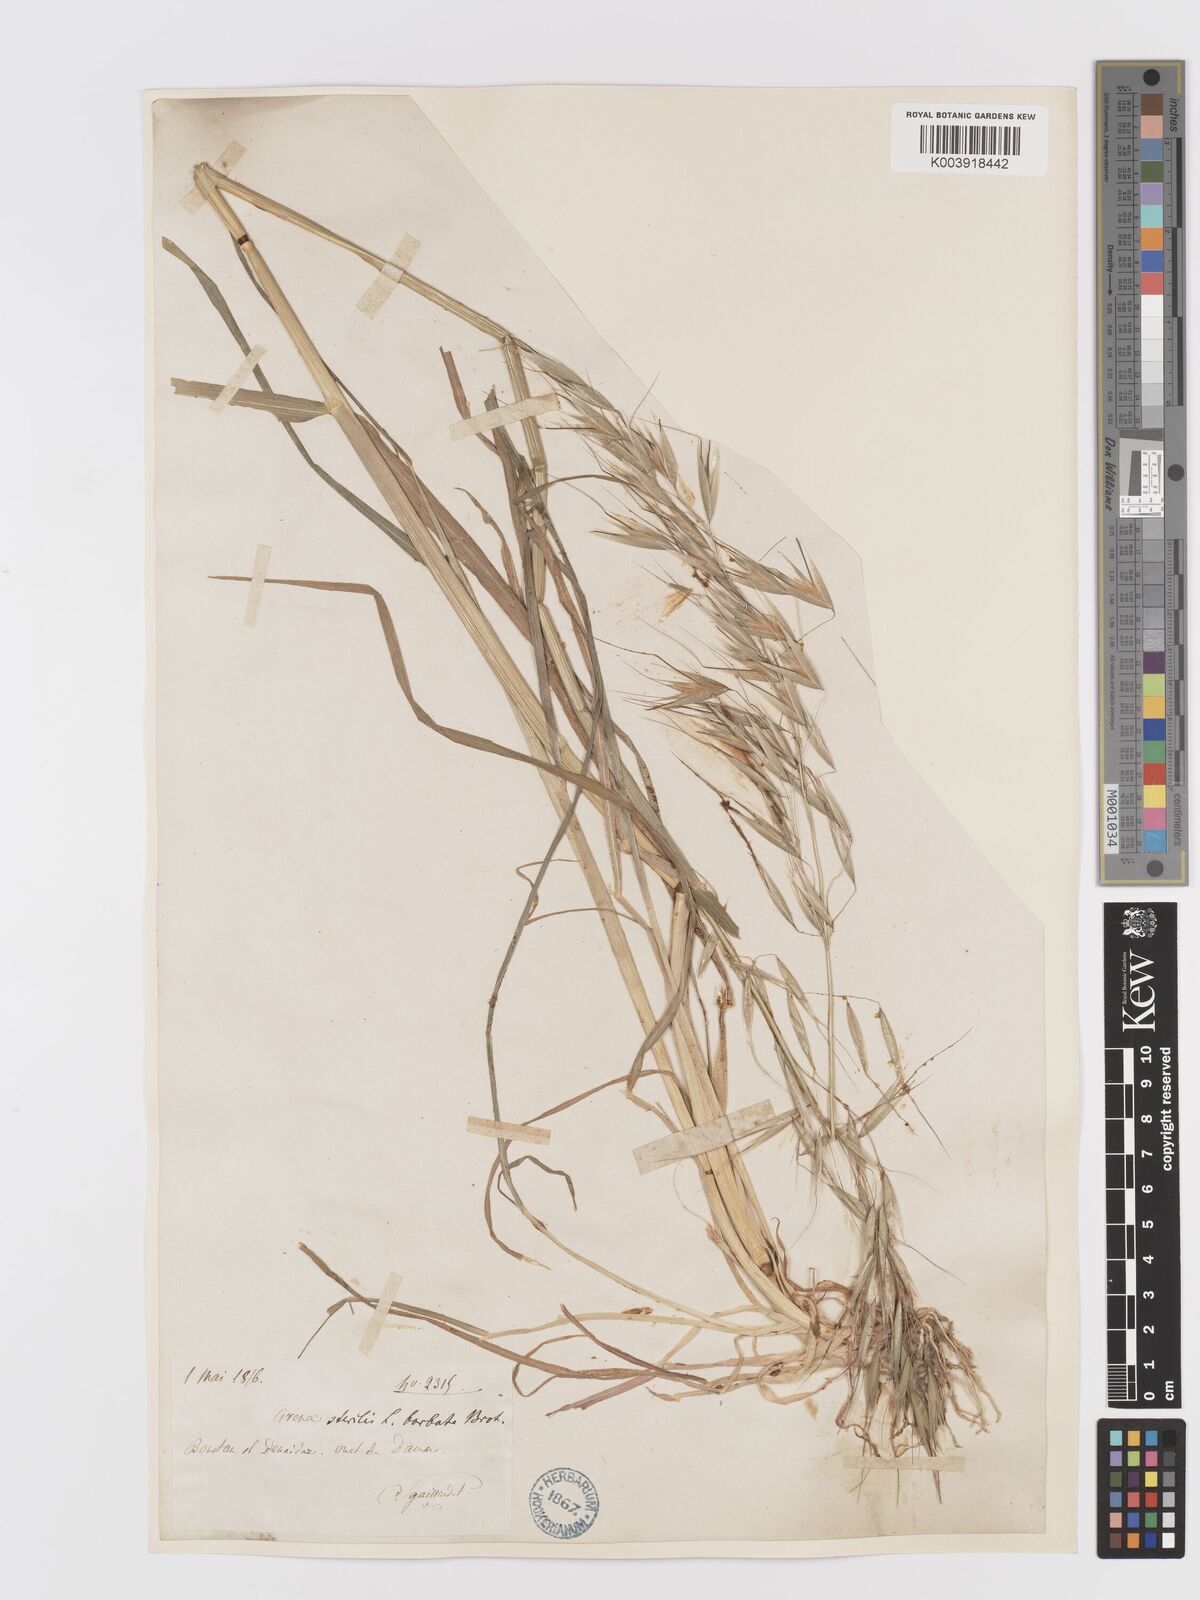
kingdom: Plantae
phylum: Tracheophyta
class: Liliopsida
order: Poales
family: Poaceae
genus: Avena
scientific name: Avena
